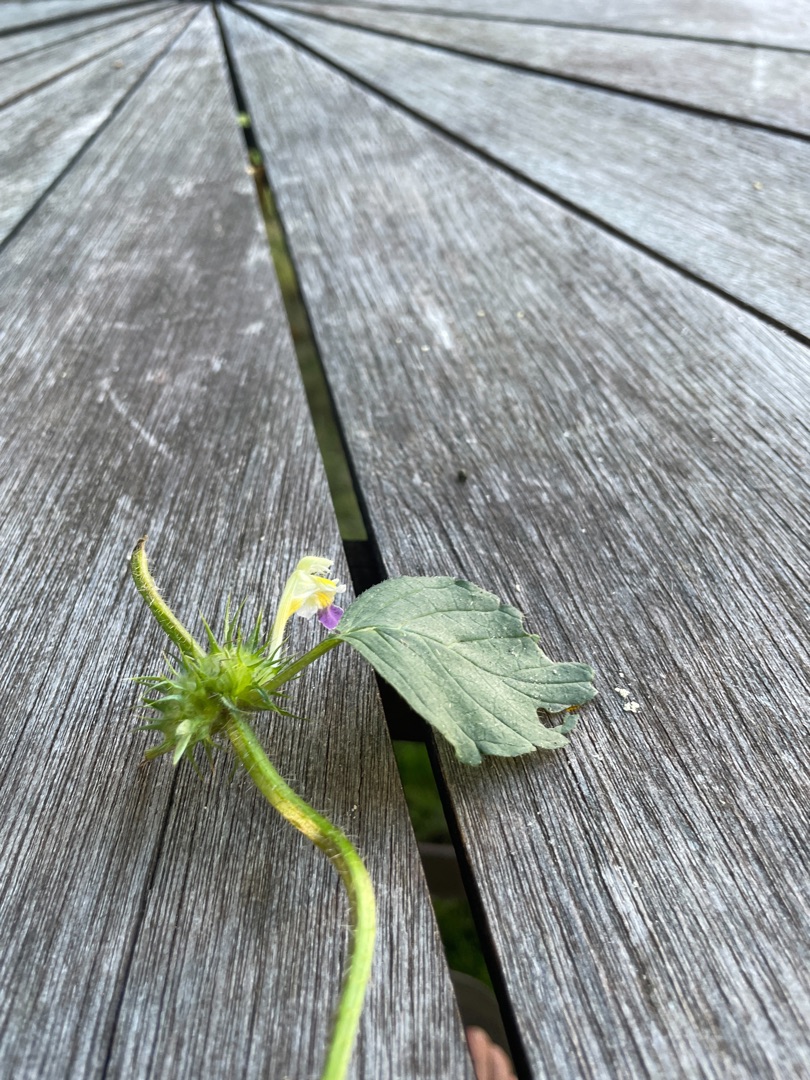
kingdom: Plantae
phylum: Tracheophyta
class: Magnoliopsida
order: Lamiales
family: Lamiaceae
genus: Galeopsis
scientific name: Galeopsis speciosa
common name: Hamp-hanekro
